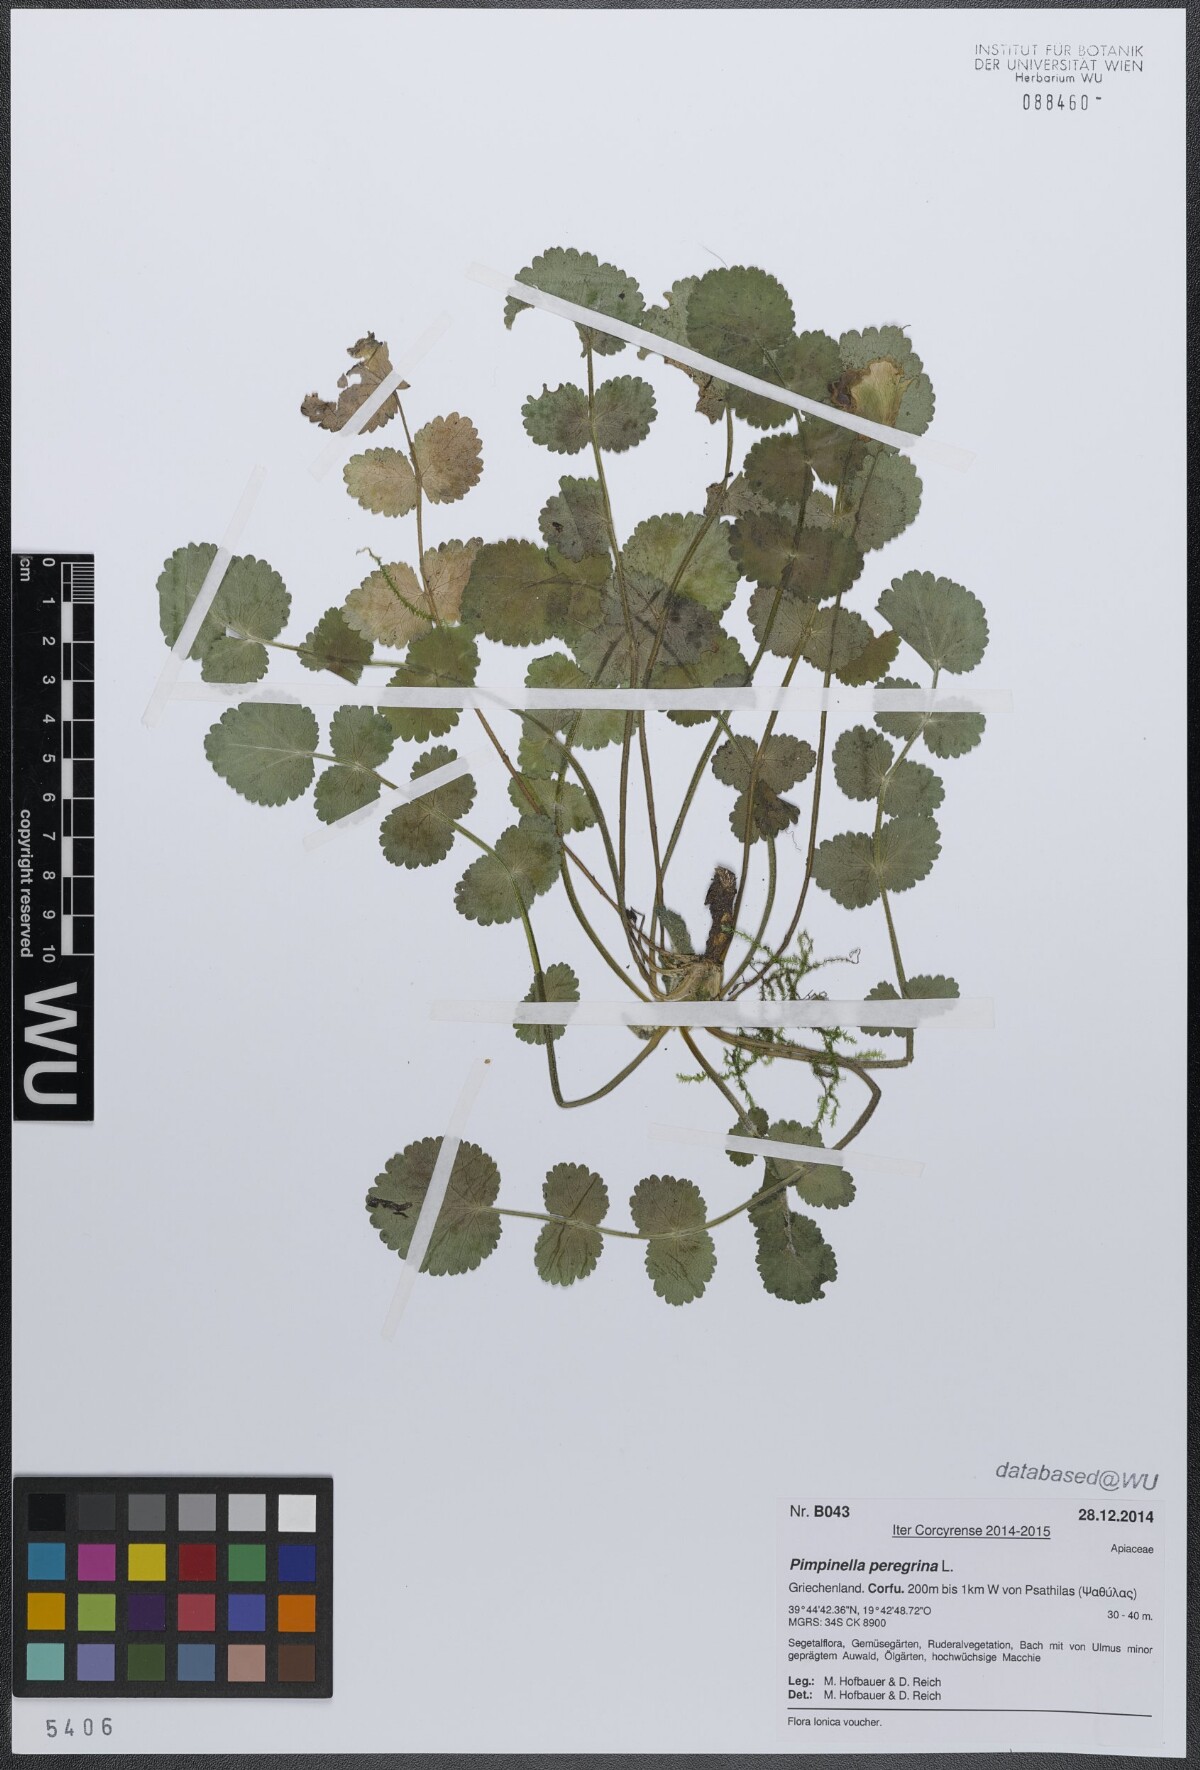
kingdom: Plantae
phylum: Tracheophyta
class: Magnoliopsida
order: Apiales
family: Apiaceae
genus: Pimpinella
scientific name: Pimpinella peregrina
